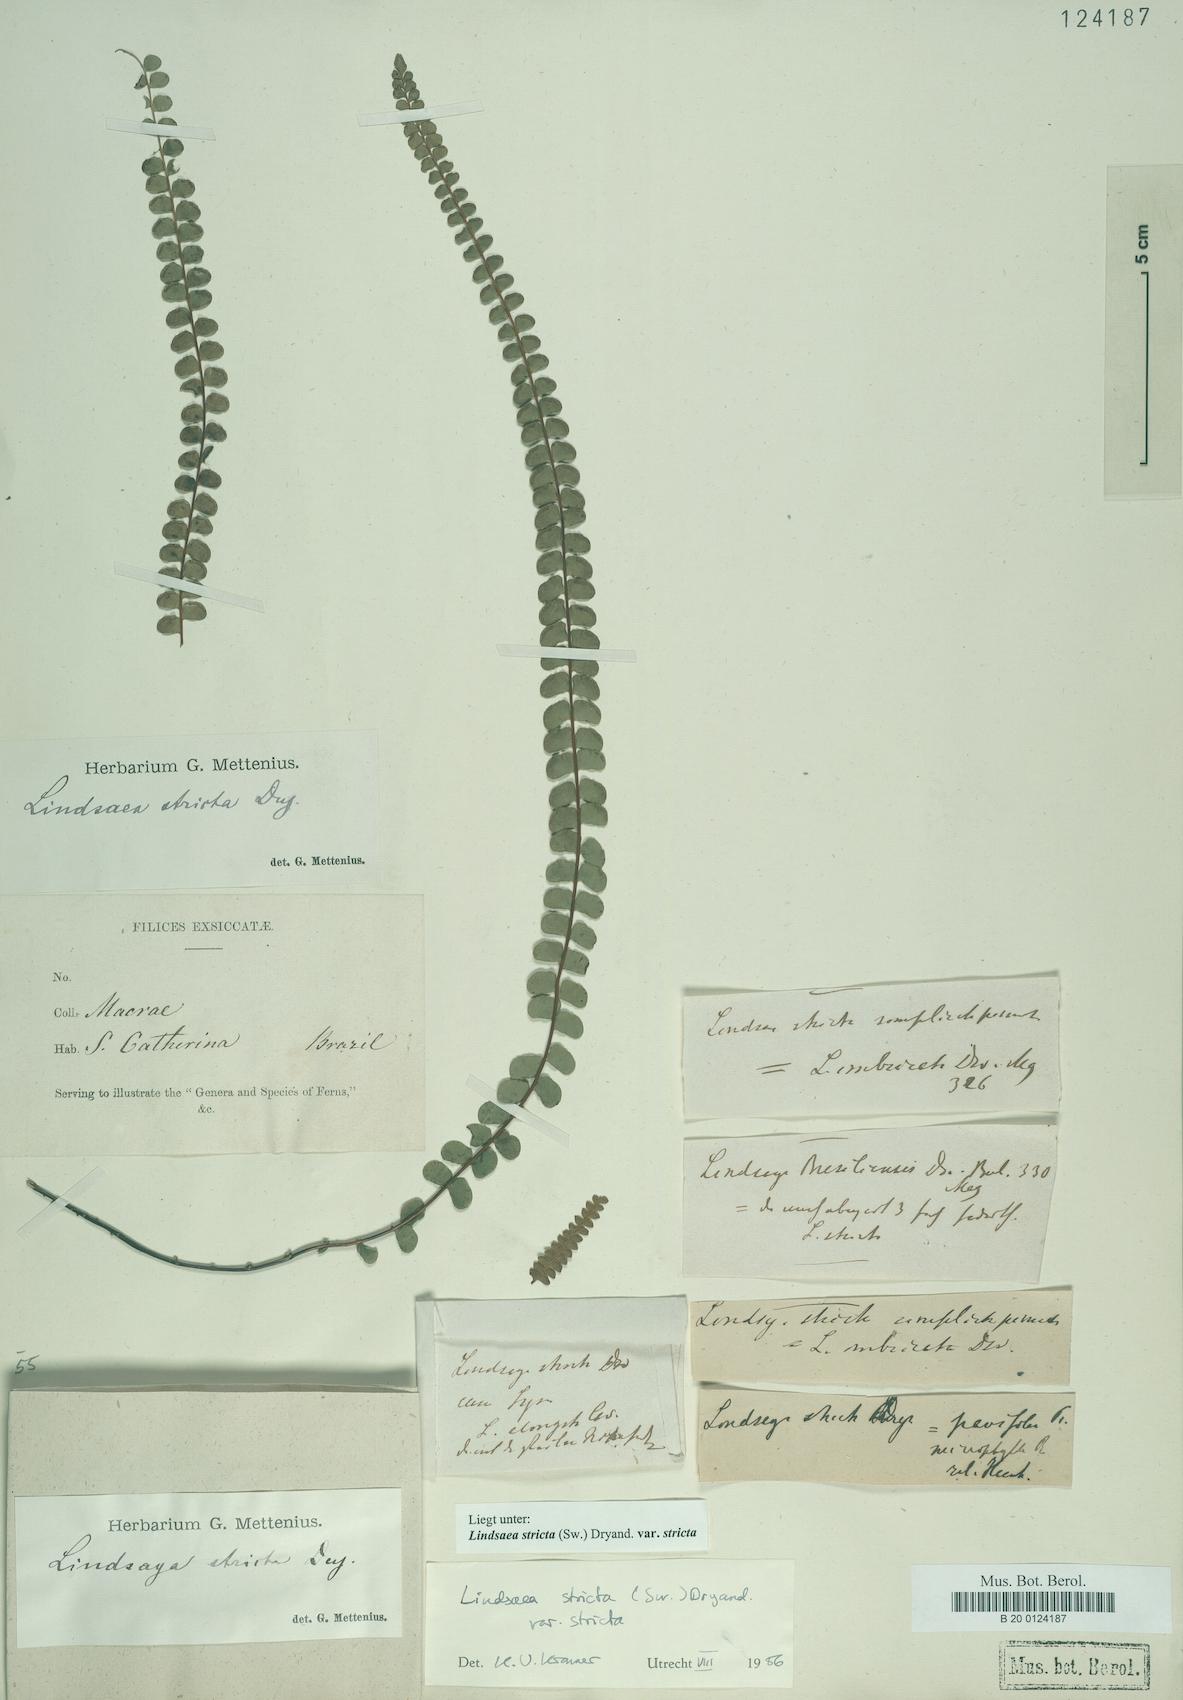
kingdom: Plantae
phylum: Tracheophyta
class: Polypodiopsida
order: Polypodiales
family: Lindsaeaceae
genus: Lindsaea
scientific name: Lindsaea stricta
